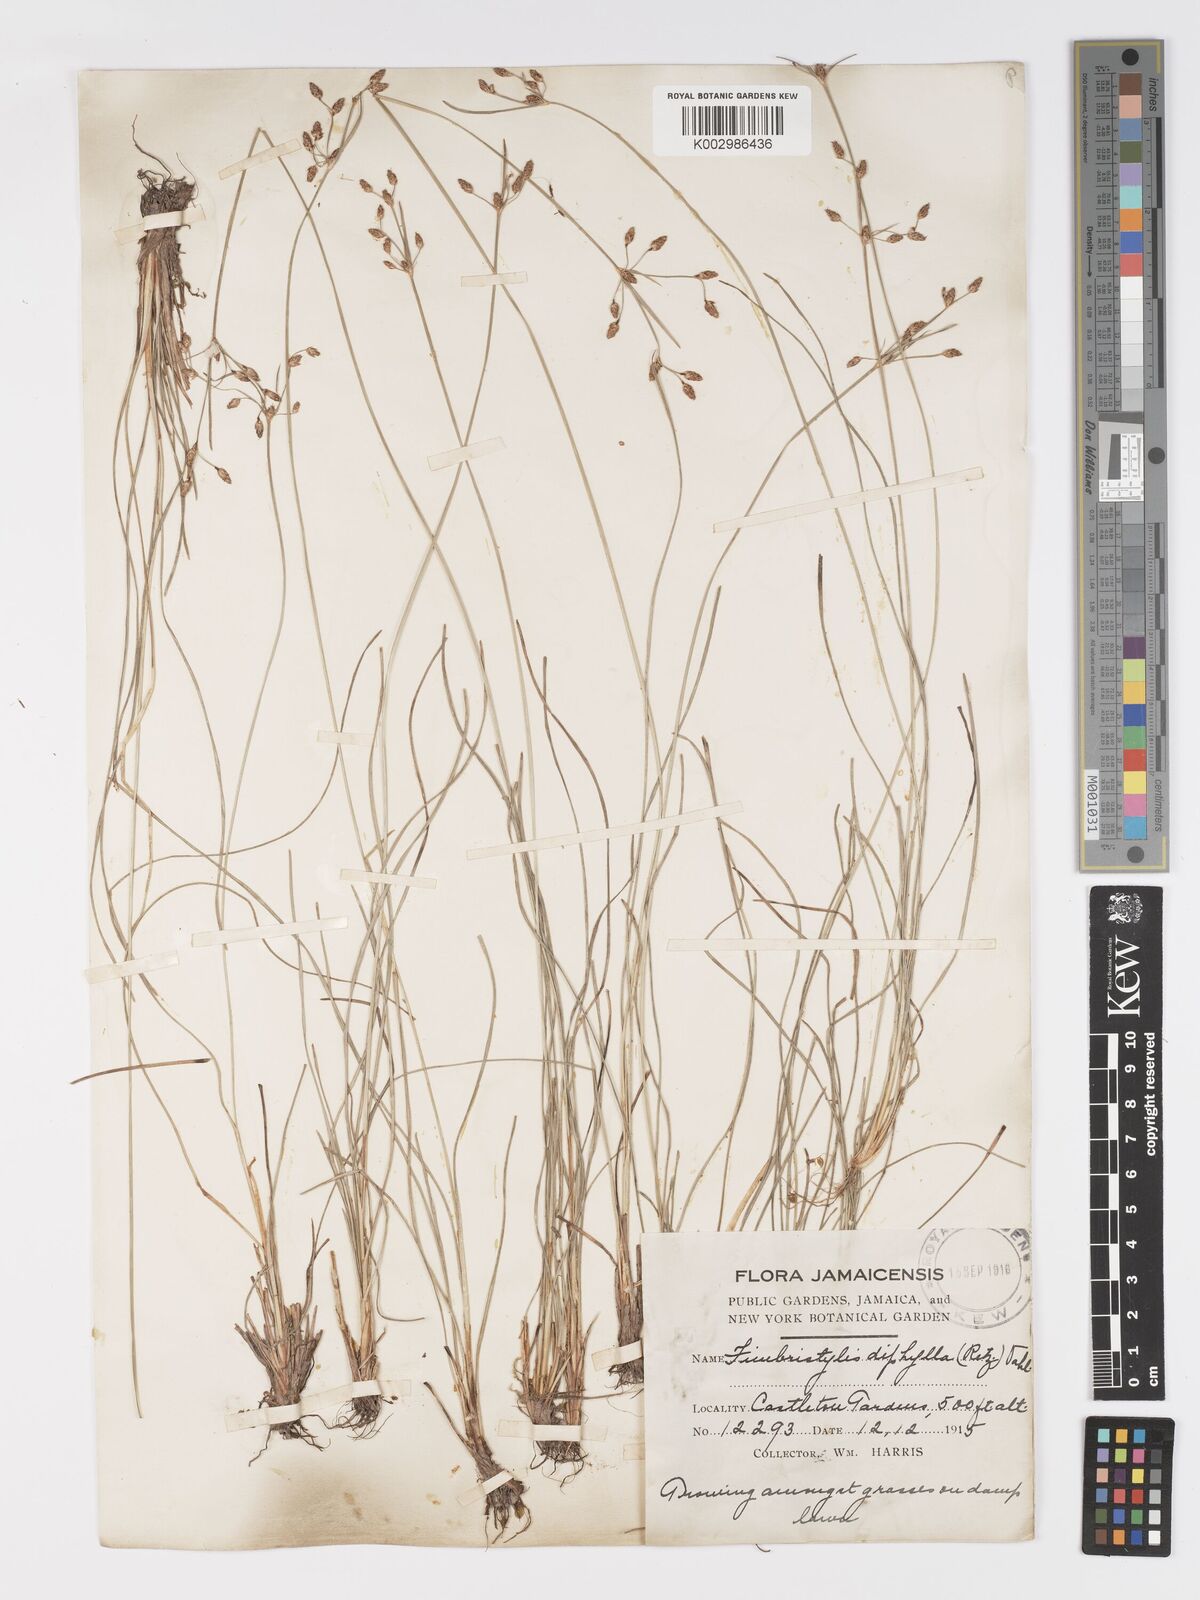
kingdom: Plantae
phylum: Tracheophyta
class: Liliopsida
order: Poales
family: Cyperaceae
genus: Fimbristylis
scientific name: Fimbristylis dichotoma
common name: Forked fimbry
